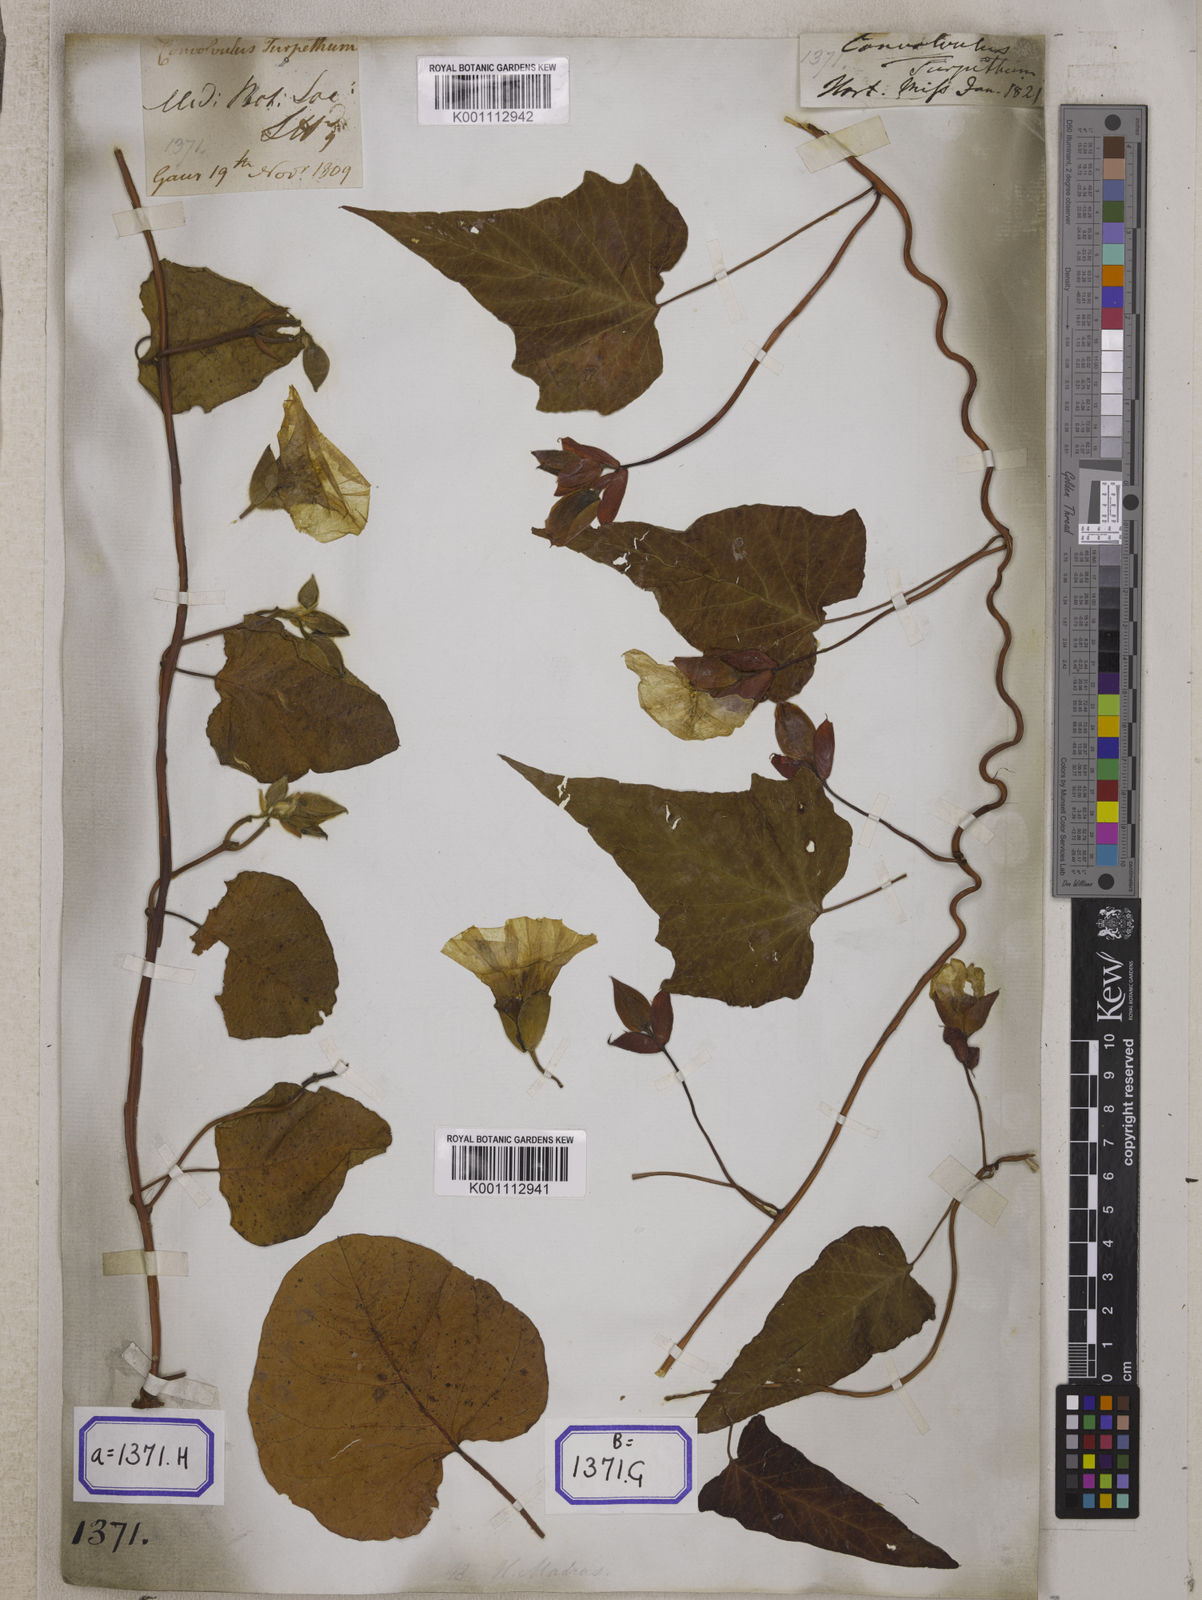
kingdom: Plantae
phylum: Tracheophyta
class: Magnoliopsida
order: Solanales
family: Convolvulaceae
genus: Operculina
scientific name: Operculina turpethum
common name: Transparent wood-rose
